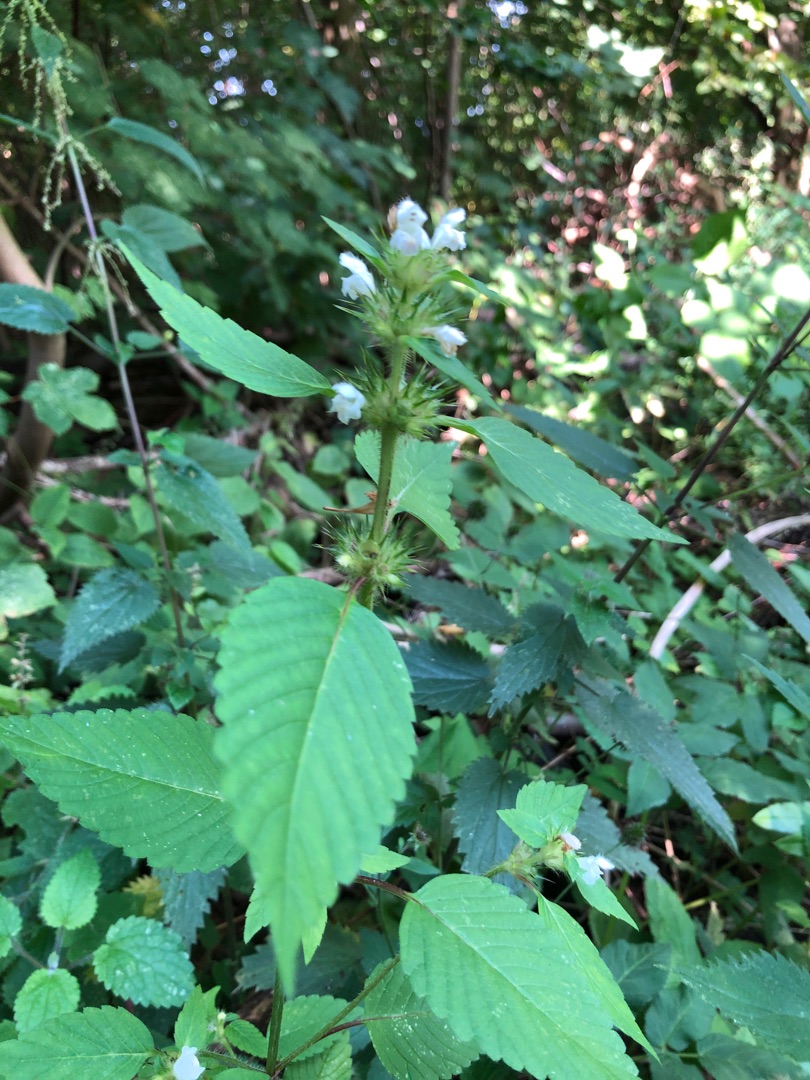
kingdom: Plantae
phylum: Tracheophyta
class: Magnoliopsida
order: Lamiales
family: Lamiaceae
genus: Galeopsis
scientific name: Galeopsis tetrahit
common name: Almindelig hanekro
